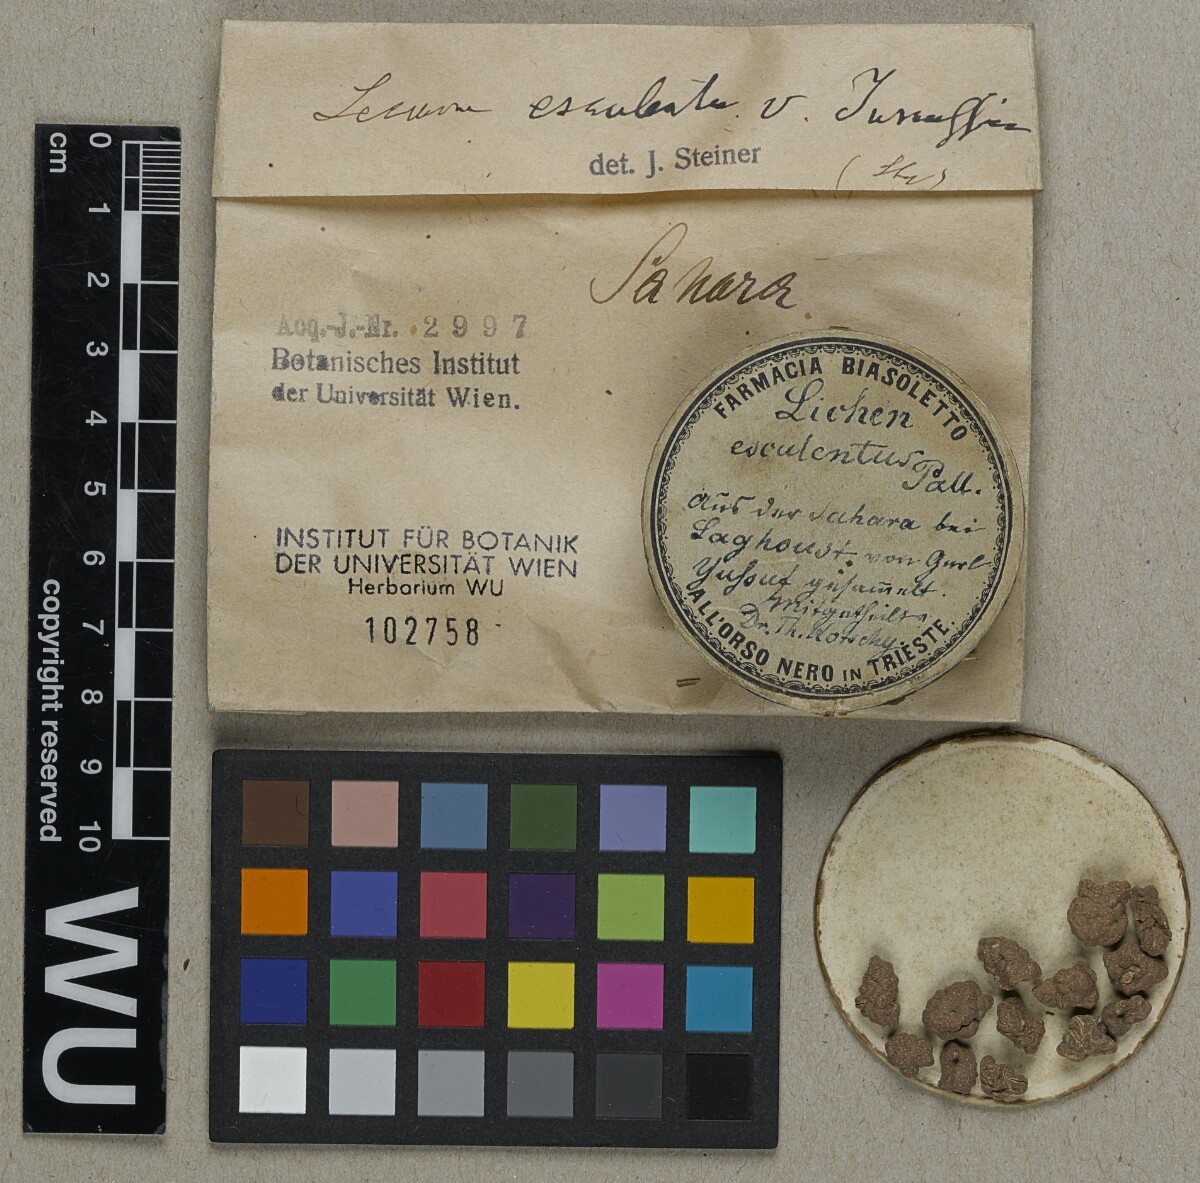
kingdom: Fungi
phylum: Ascomycota
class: Lecanoromycetes
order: Pertusariales
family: Megasporaceae
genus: Circinaria
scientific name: Circinaria esculenta
